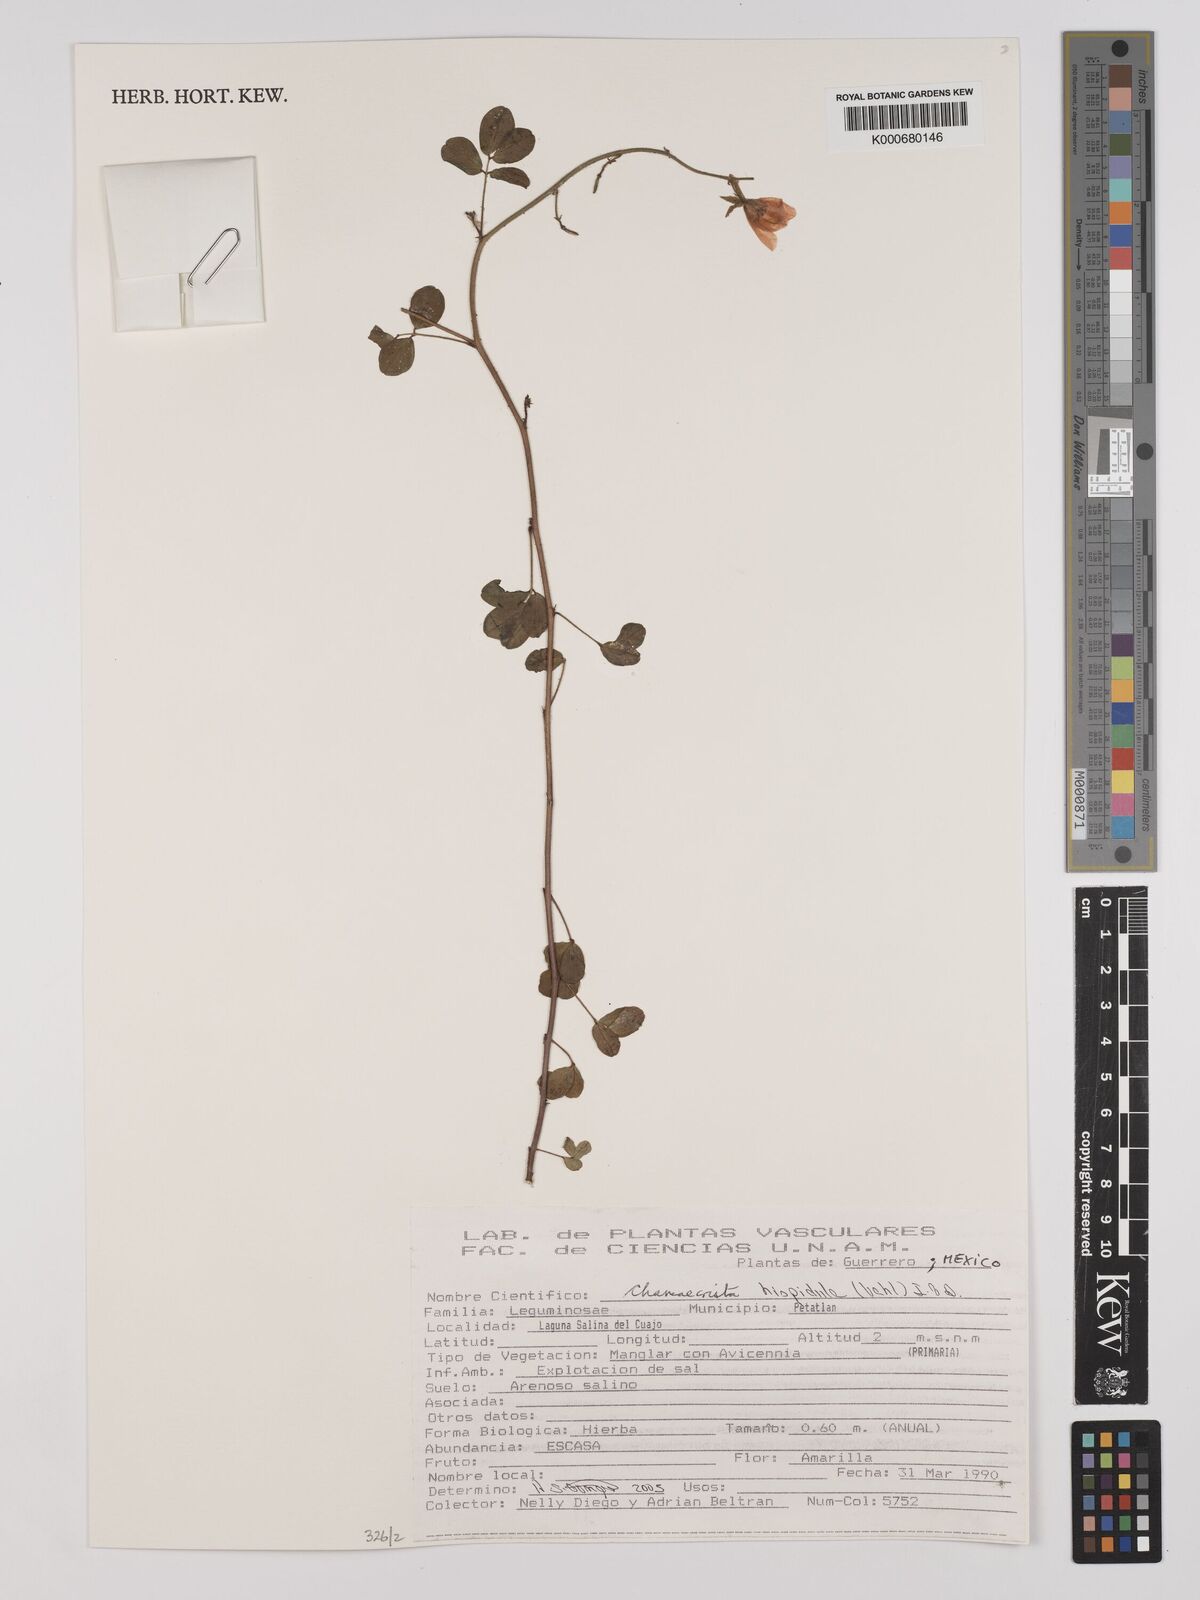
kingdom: Plantae
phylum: Tracheophyta
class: Magnoliopsida
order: Fabales
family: Fabaceae
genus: Chamaecrista
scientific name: Chamaecrista hispidula
